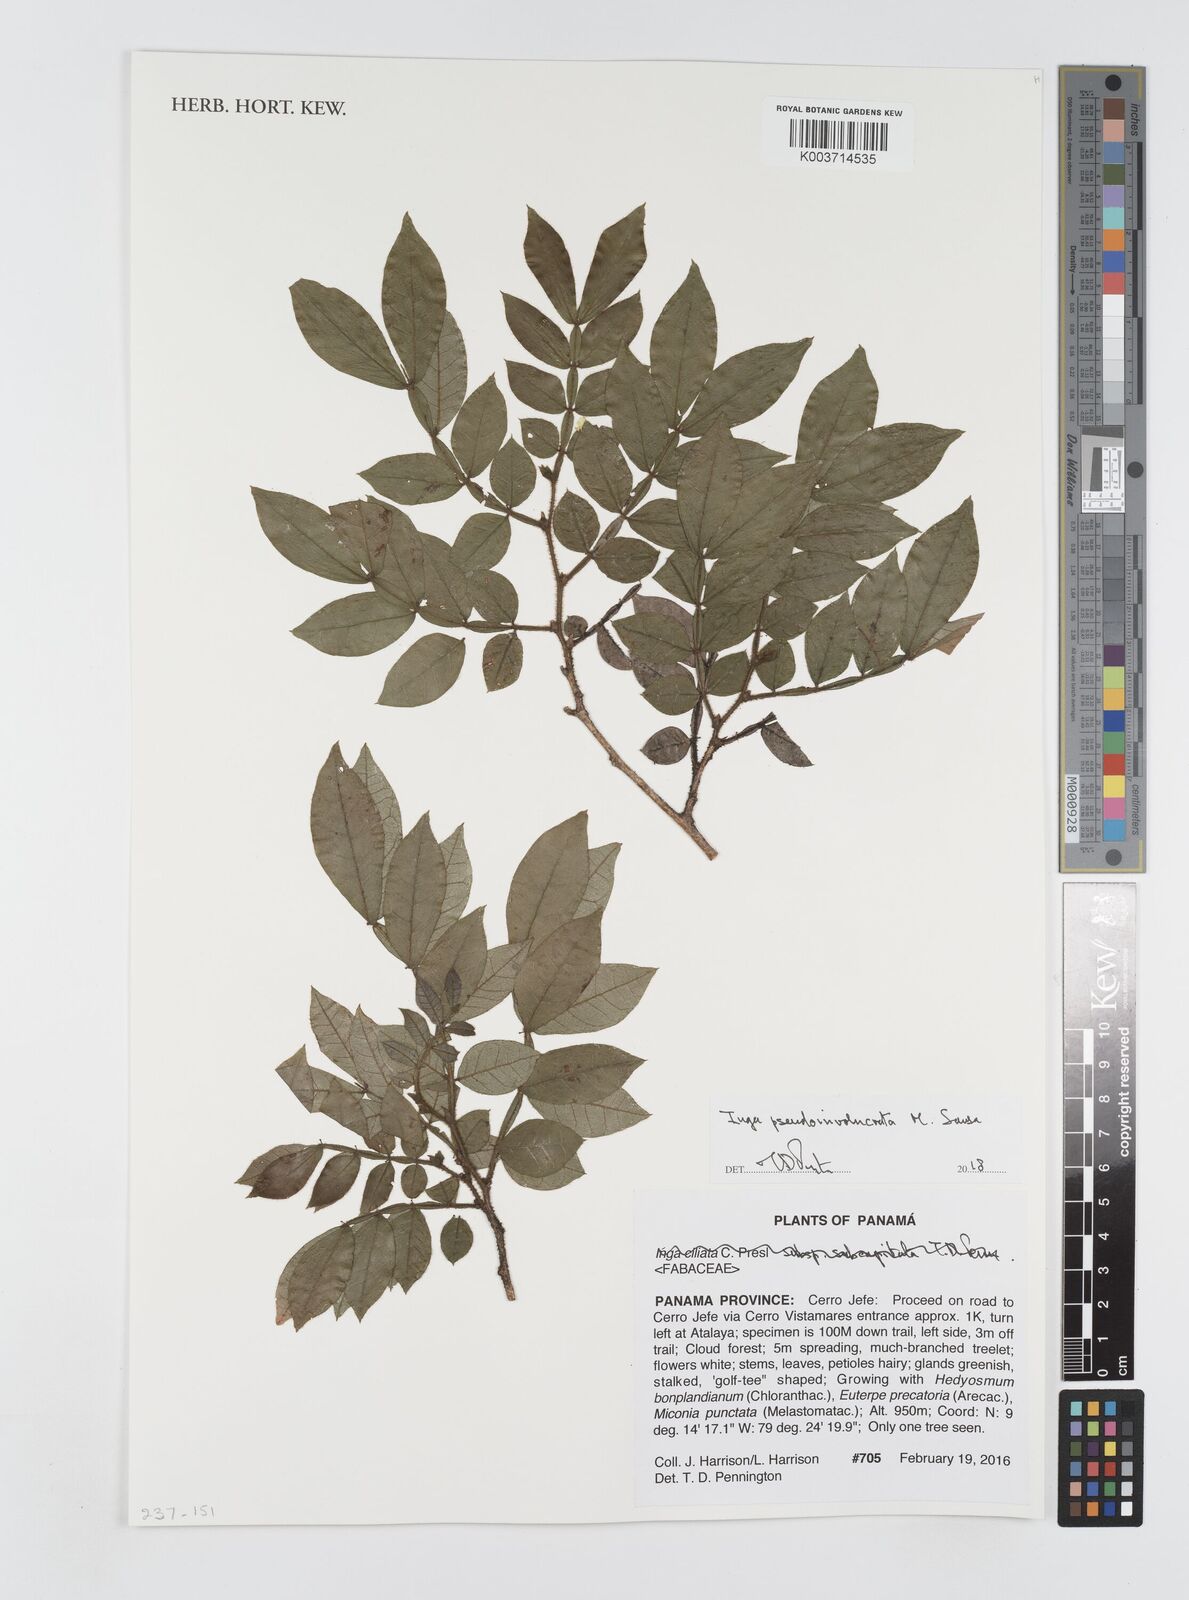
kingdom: Plantae
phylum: Tracheophyta
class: Magnoliopsida
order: Fabales
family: Fabaceae
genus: Inga
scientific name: Inga pseudoinvolucrata
